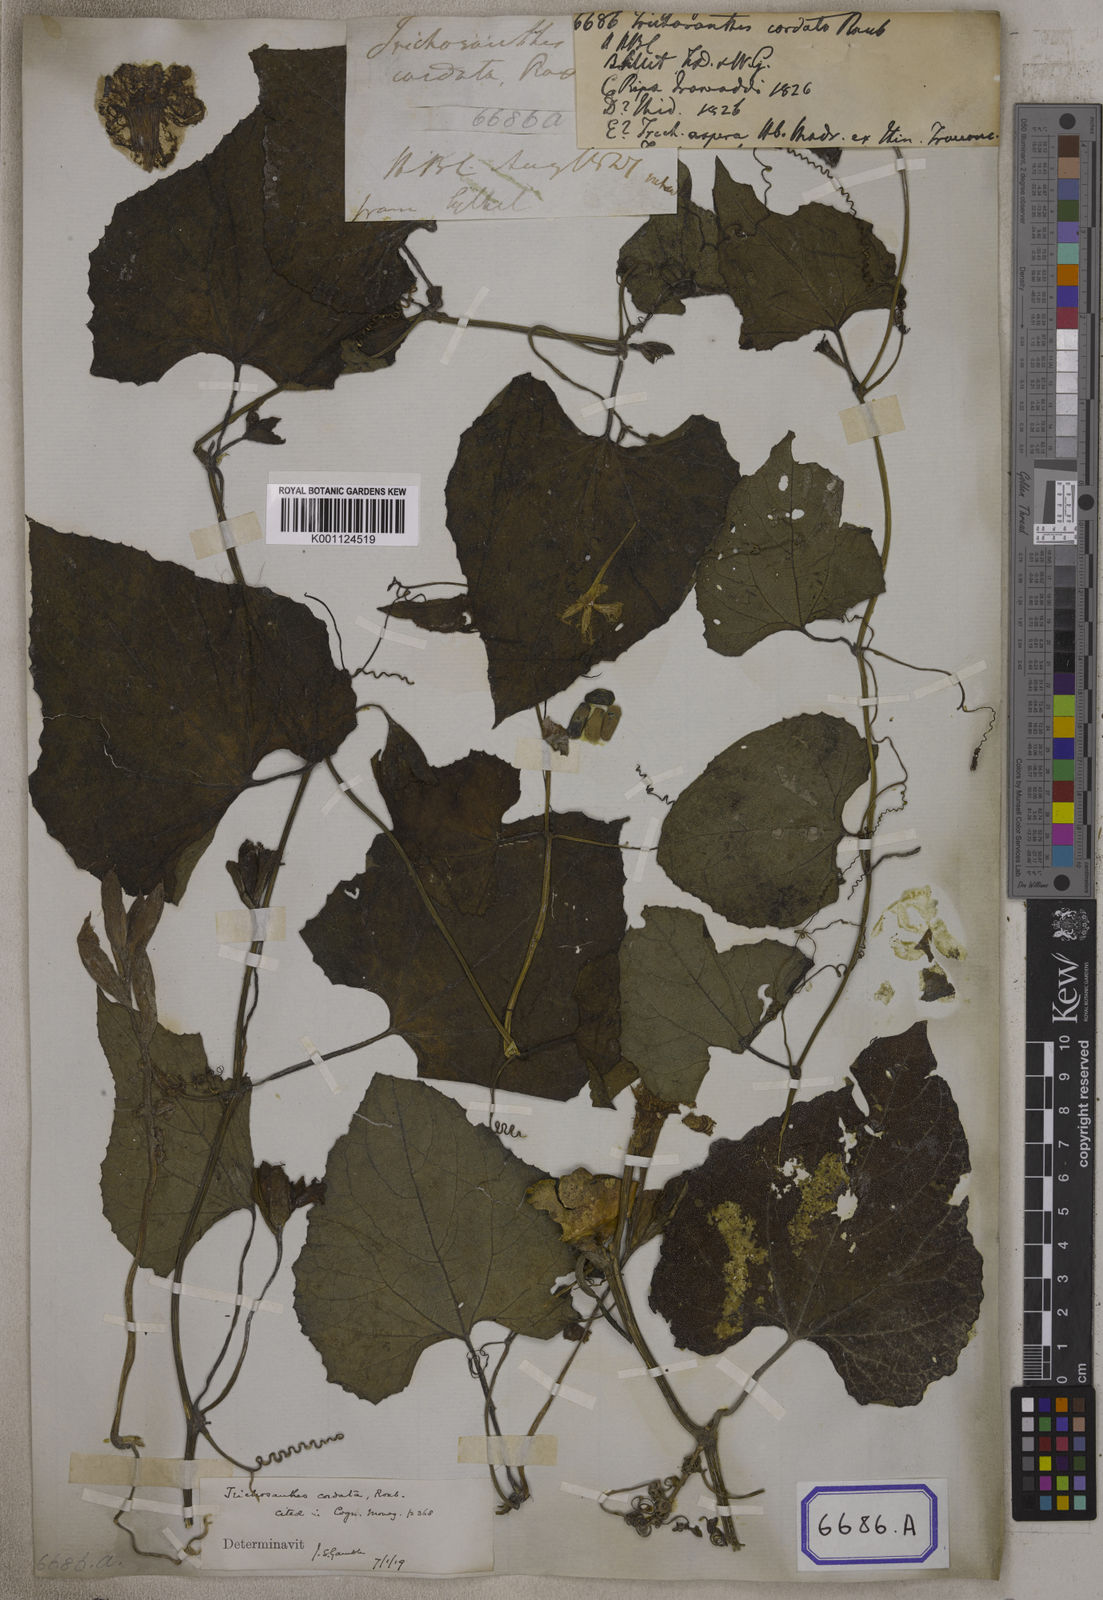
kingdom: Plantae
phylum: Tracheophyta
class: Magnoliopsida
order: Cucurbitales
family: Cucurbitaceae
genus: Trichosanthes
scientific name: Trichosanthes
